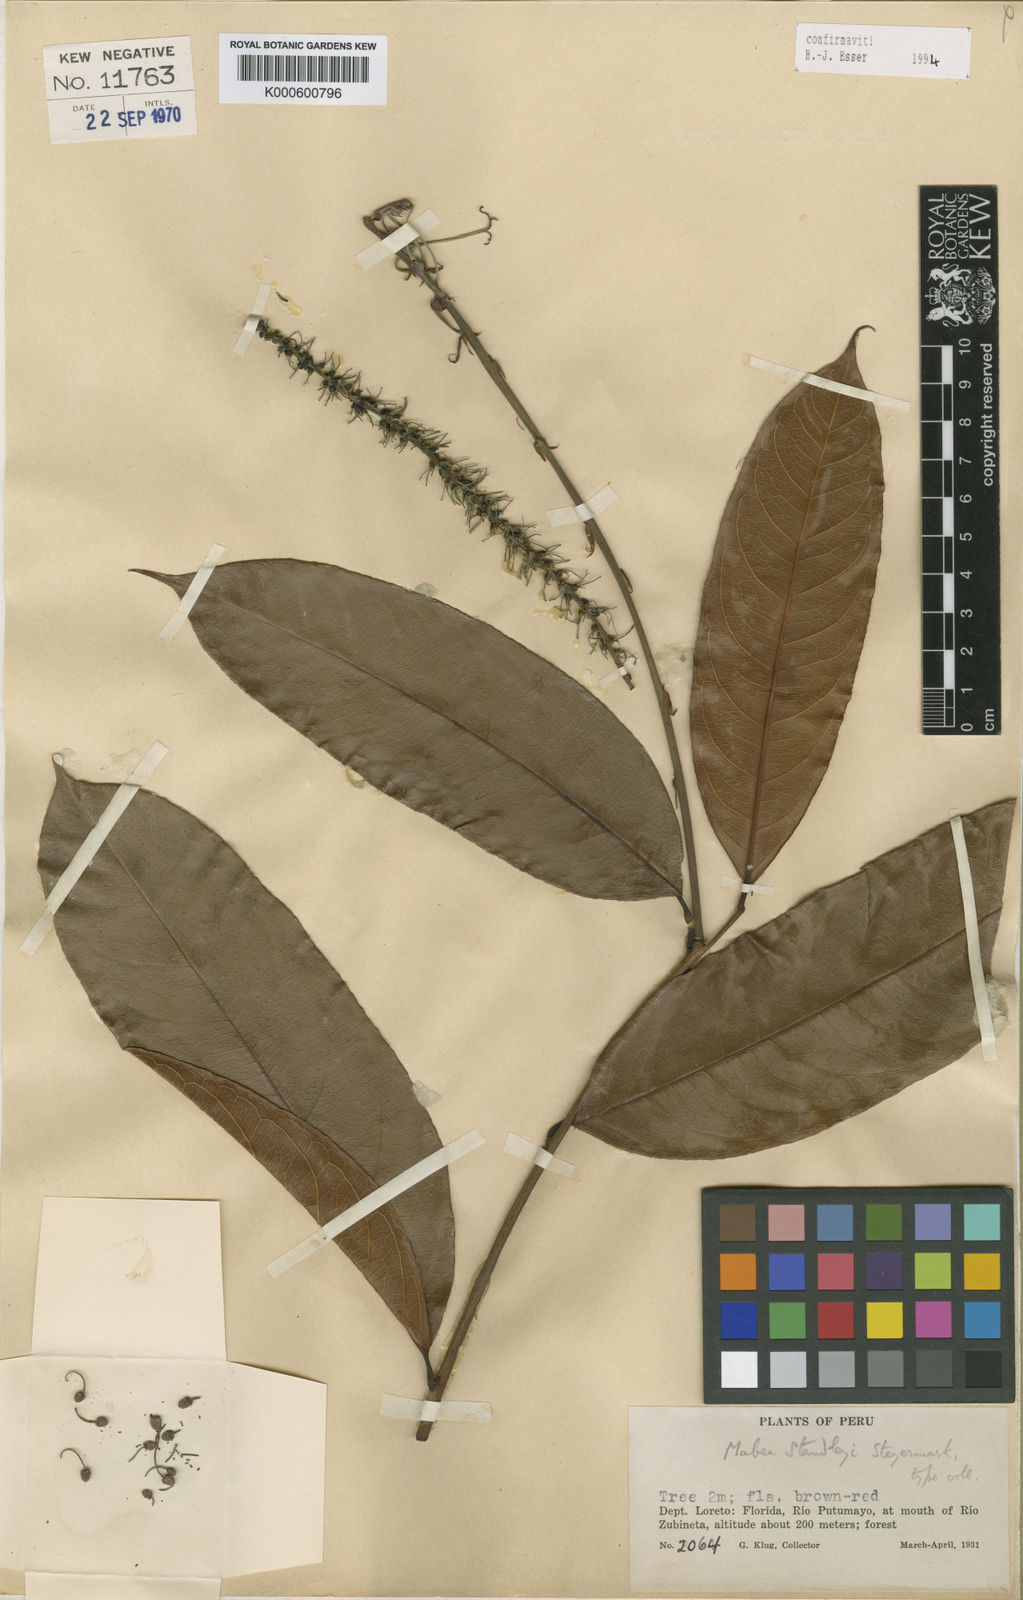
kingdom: Plantae
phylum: Tracheophyta
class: Magnoliopsida
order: Malpighiales
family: Euphorbiaceae
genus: Mabea
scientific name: Mabea standleyi
